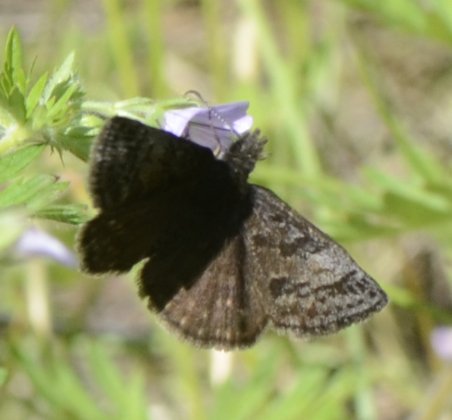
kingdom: Animalia
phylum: Arthropoda
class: Insecta
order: Lepidoptera
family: Hesperiidae
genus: Erynnis
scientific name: Erynnis icelus
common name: Dreamy Duskywing
